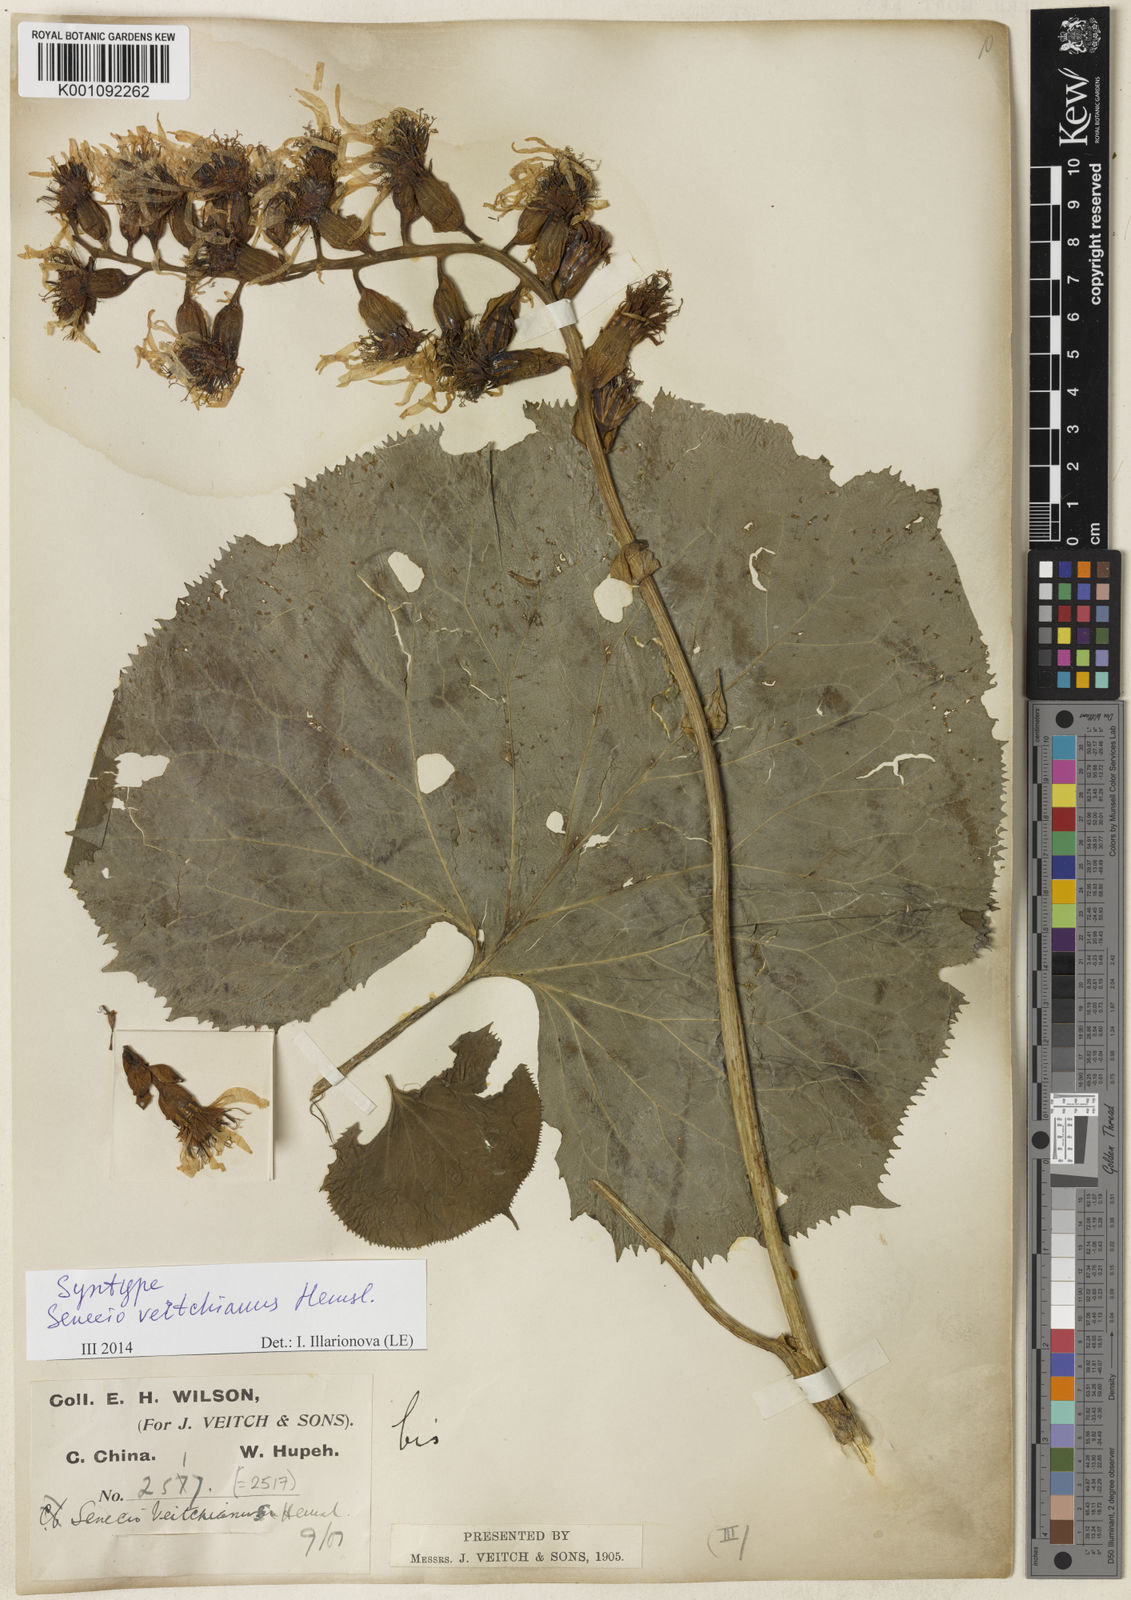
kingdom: Plantae
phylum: Tracheophyta
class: Magnoliopsida
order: Asterales
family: Asteraceae
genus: Ligularia
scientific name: Ligularia veitchiana
